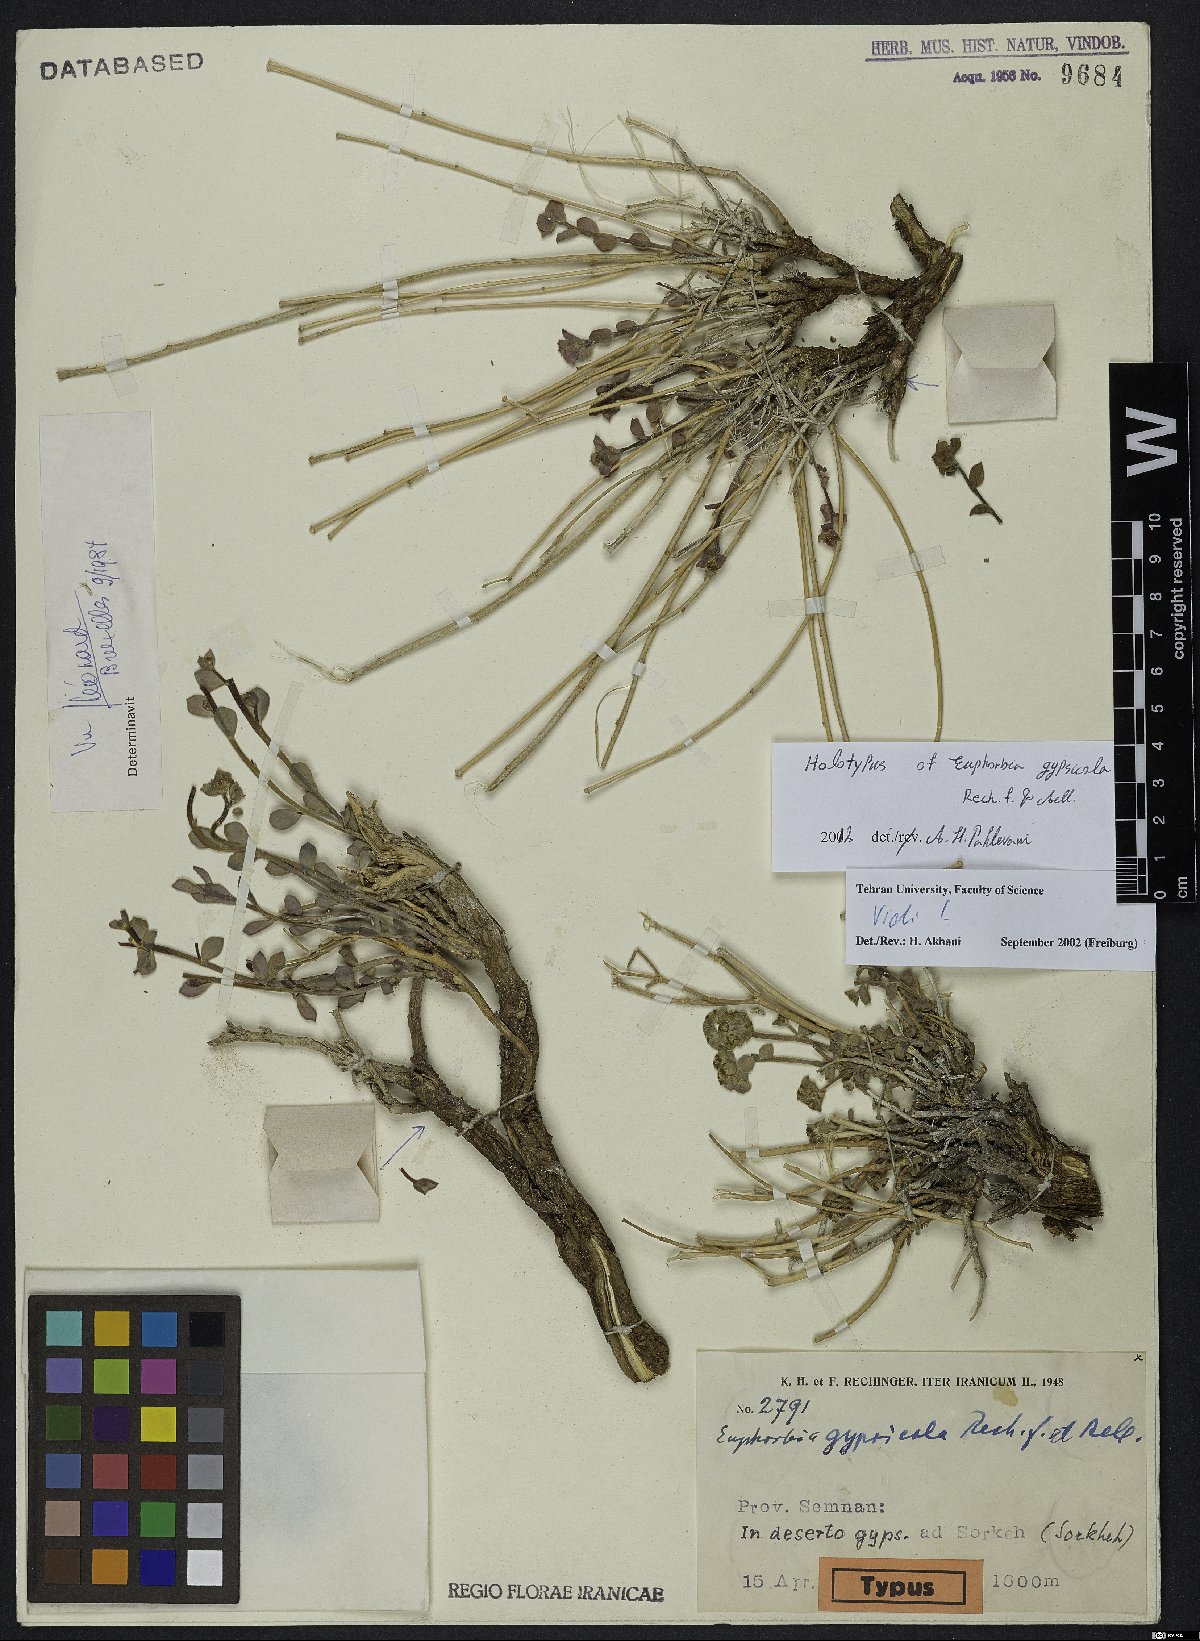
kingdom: Plantae
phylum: Tracheophyta
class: Magnoliopsida
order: Malpighiales
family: Euphorbiaceae
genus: Euphorbia
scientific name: Euphorbia gypsophila
